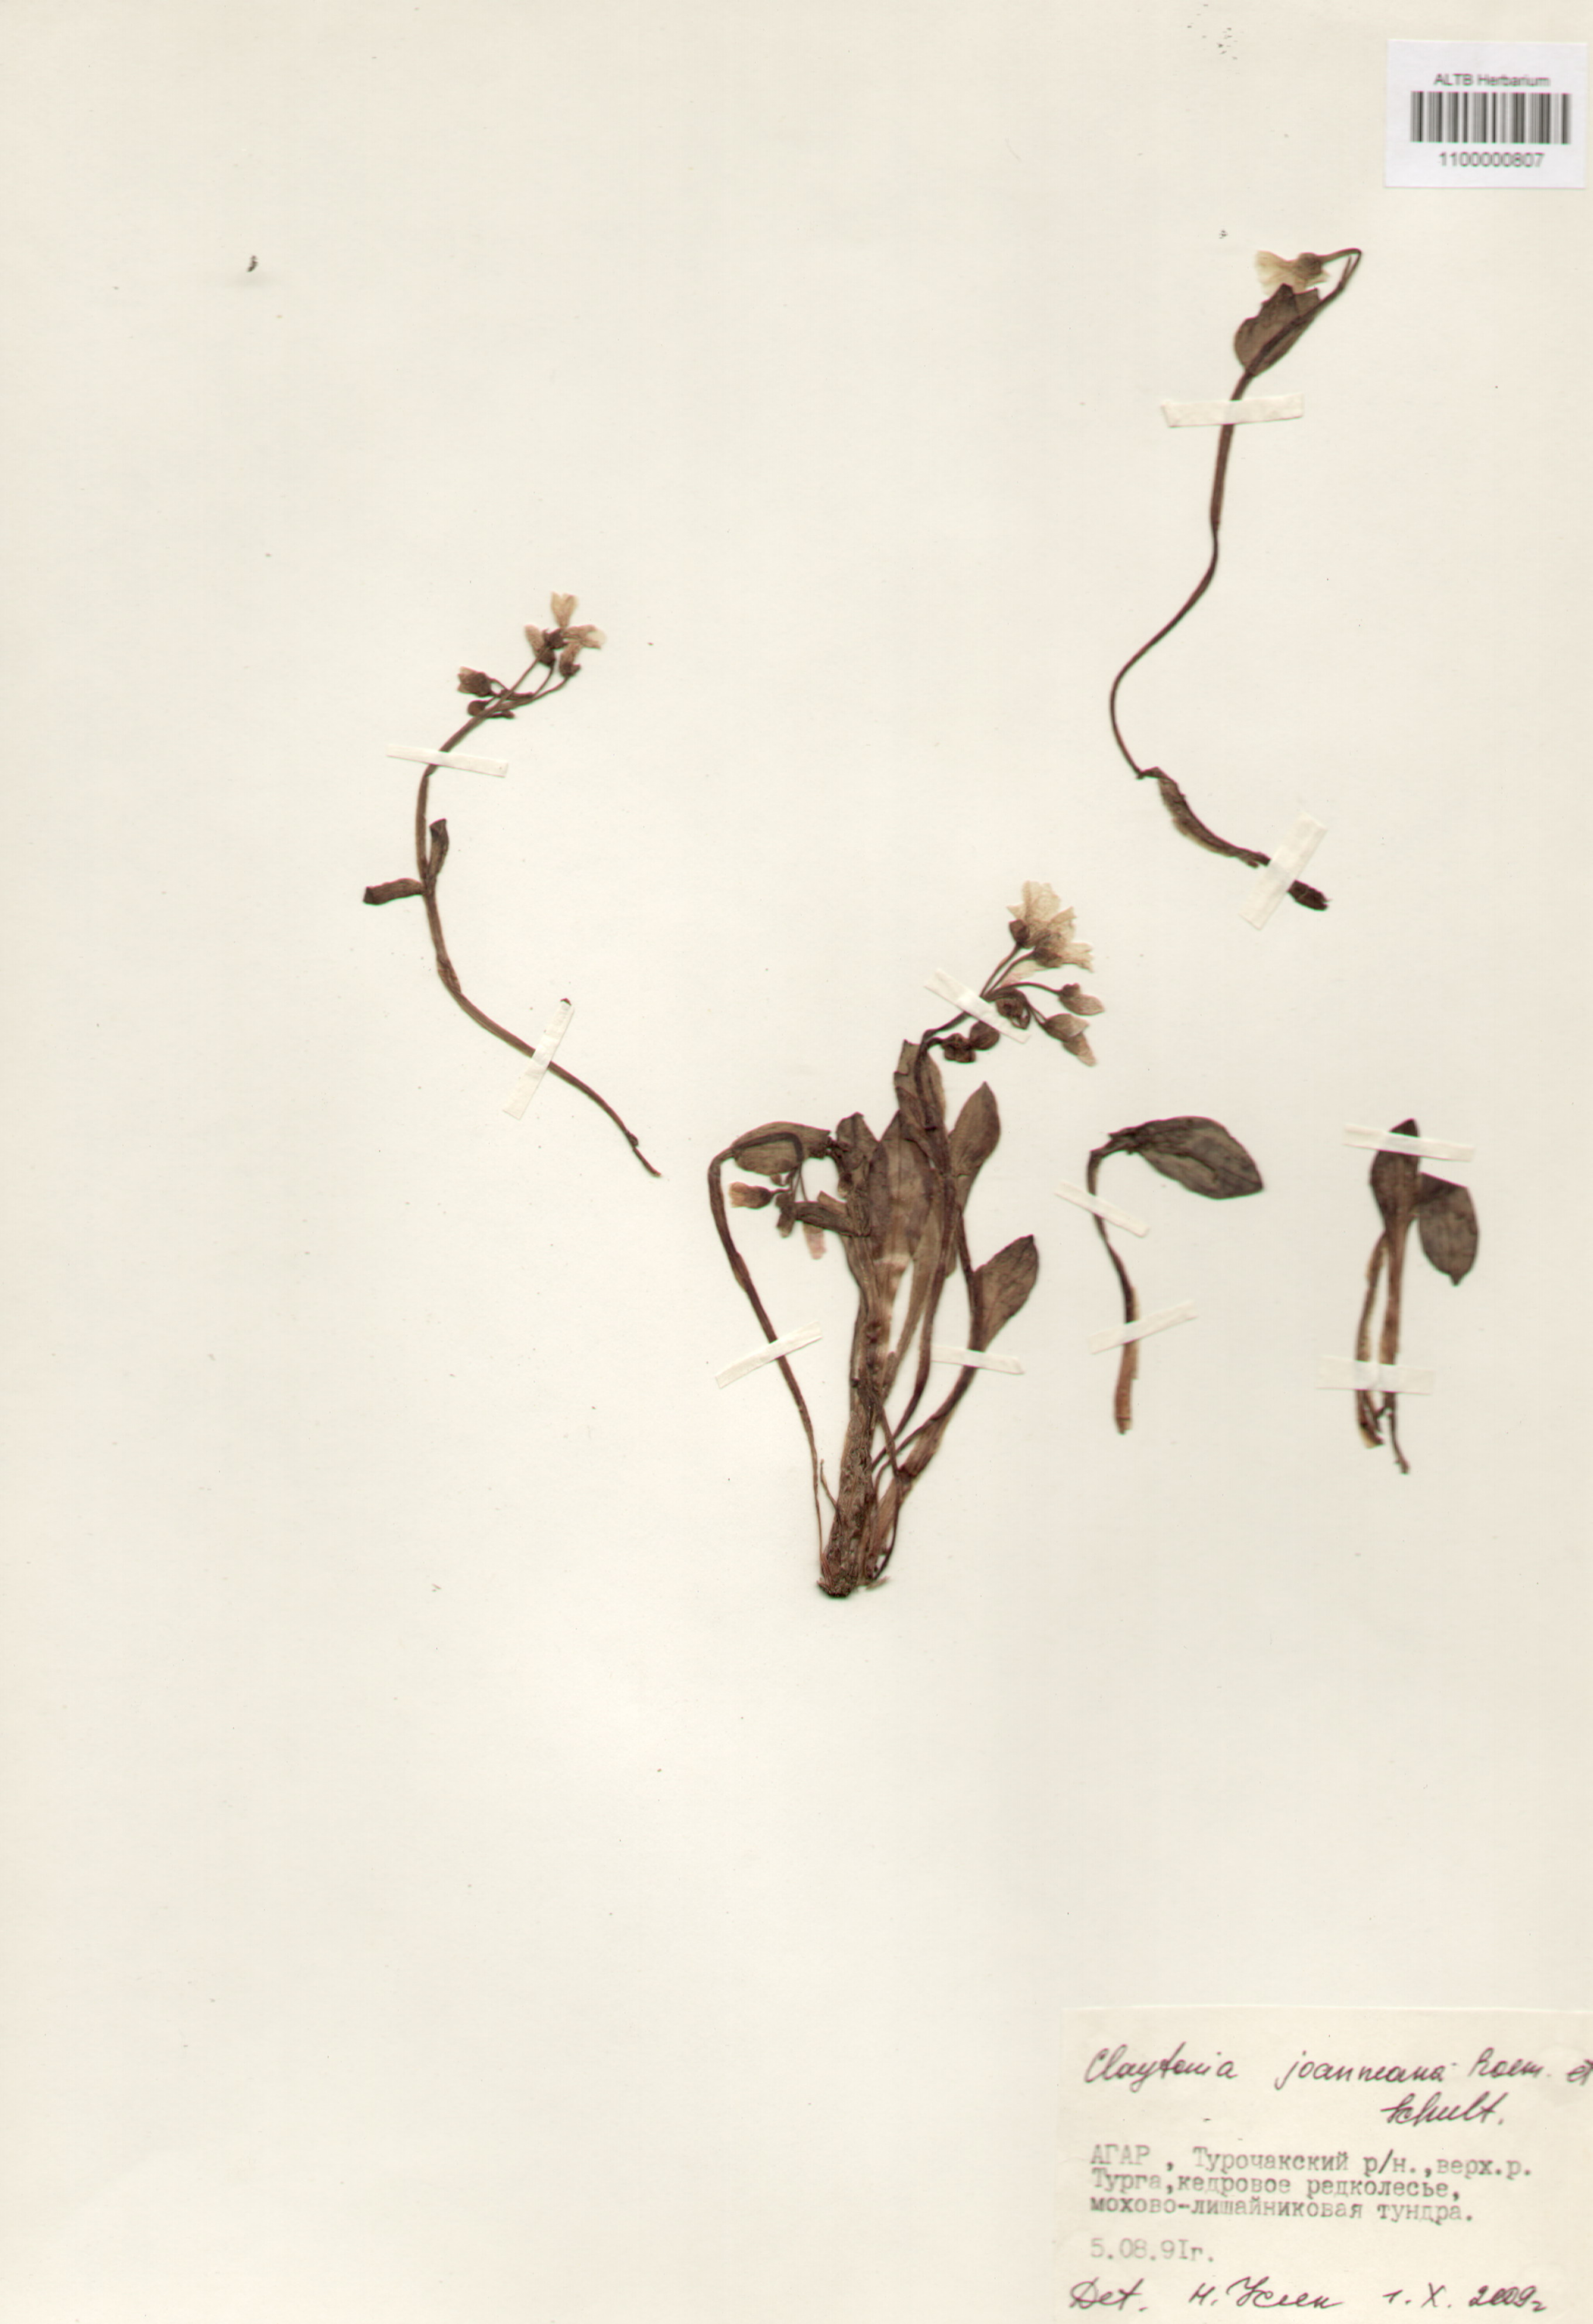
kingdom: Plantae
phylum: Tracheophyta
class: Magnoliopsida
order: Caryophyllales
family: Montiaceae
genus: Claytonia
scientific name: Claytonia joanneana
